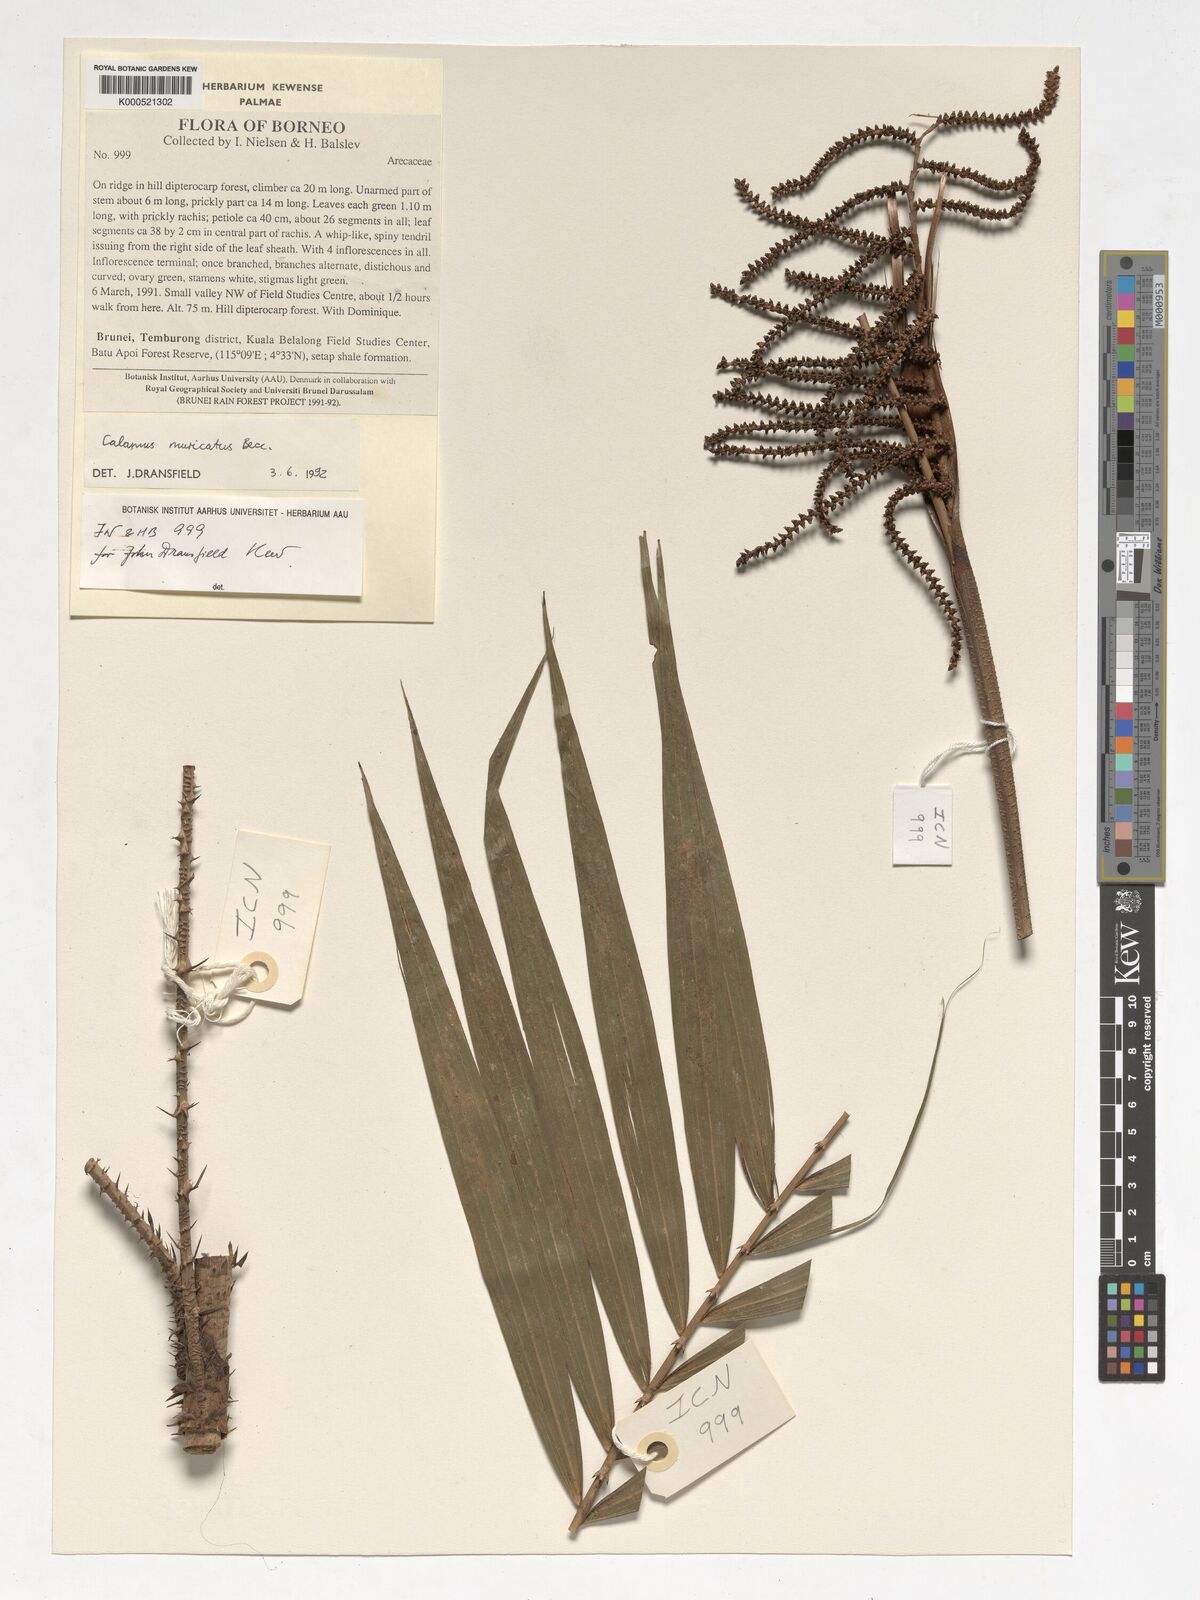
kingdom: Plantae
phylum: Tracheophyta
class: Liliopsida
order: Arecales
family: Arecaceae
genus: Calamus
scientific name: Calamus muricatus
